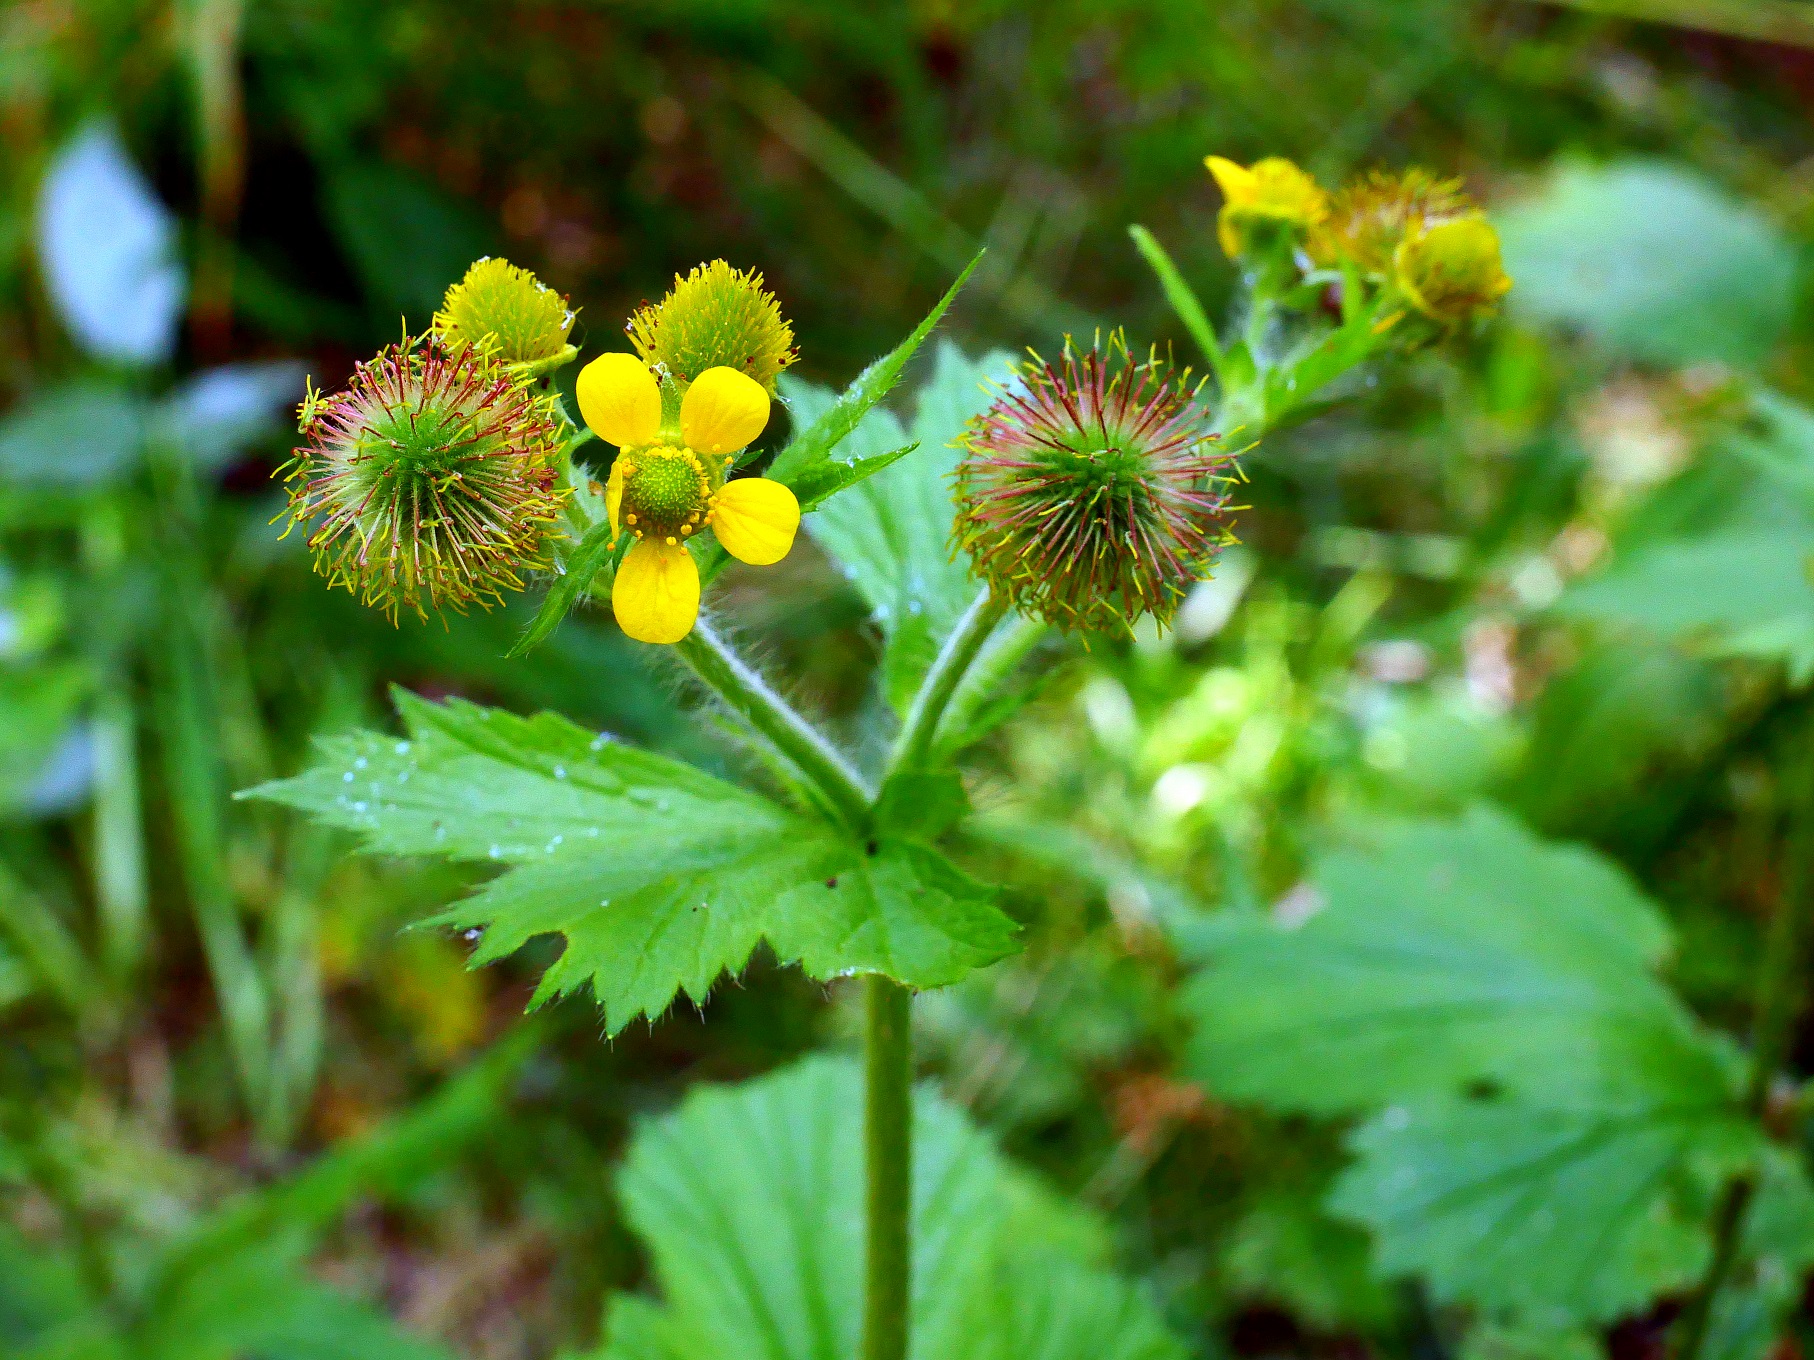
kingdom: Plantae
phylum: Tracheophyta
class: Magnoliopsida
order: Rosales
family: Rosaceae
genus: Geum
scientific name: Geum macrophyllum
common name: Amerikansk nellikerod
